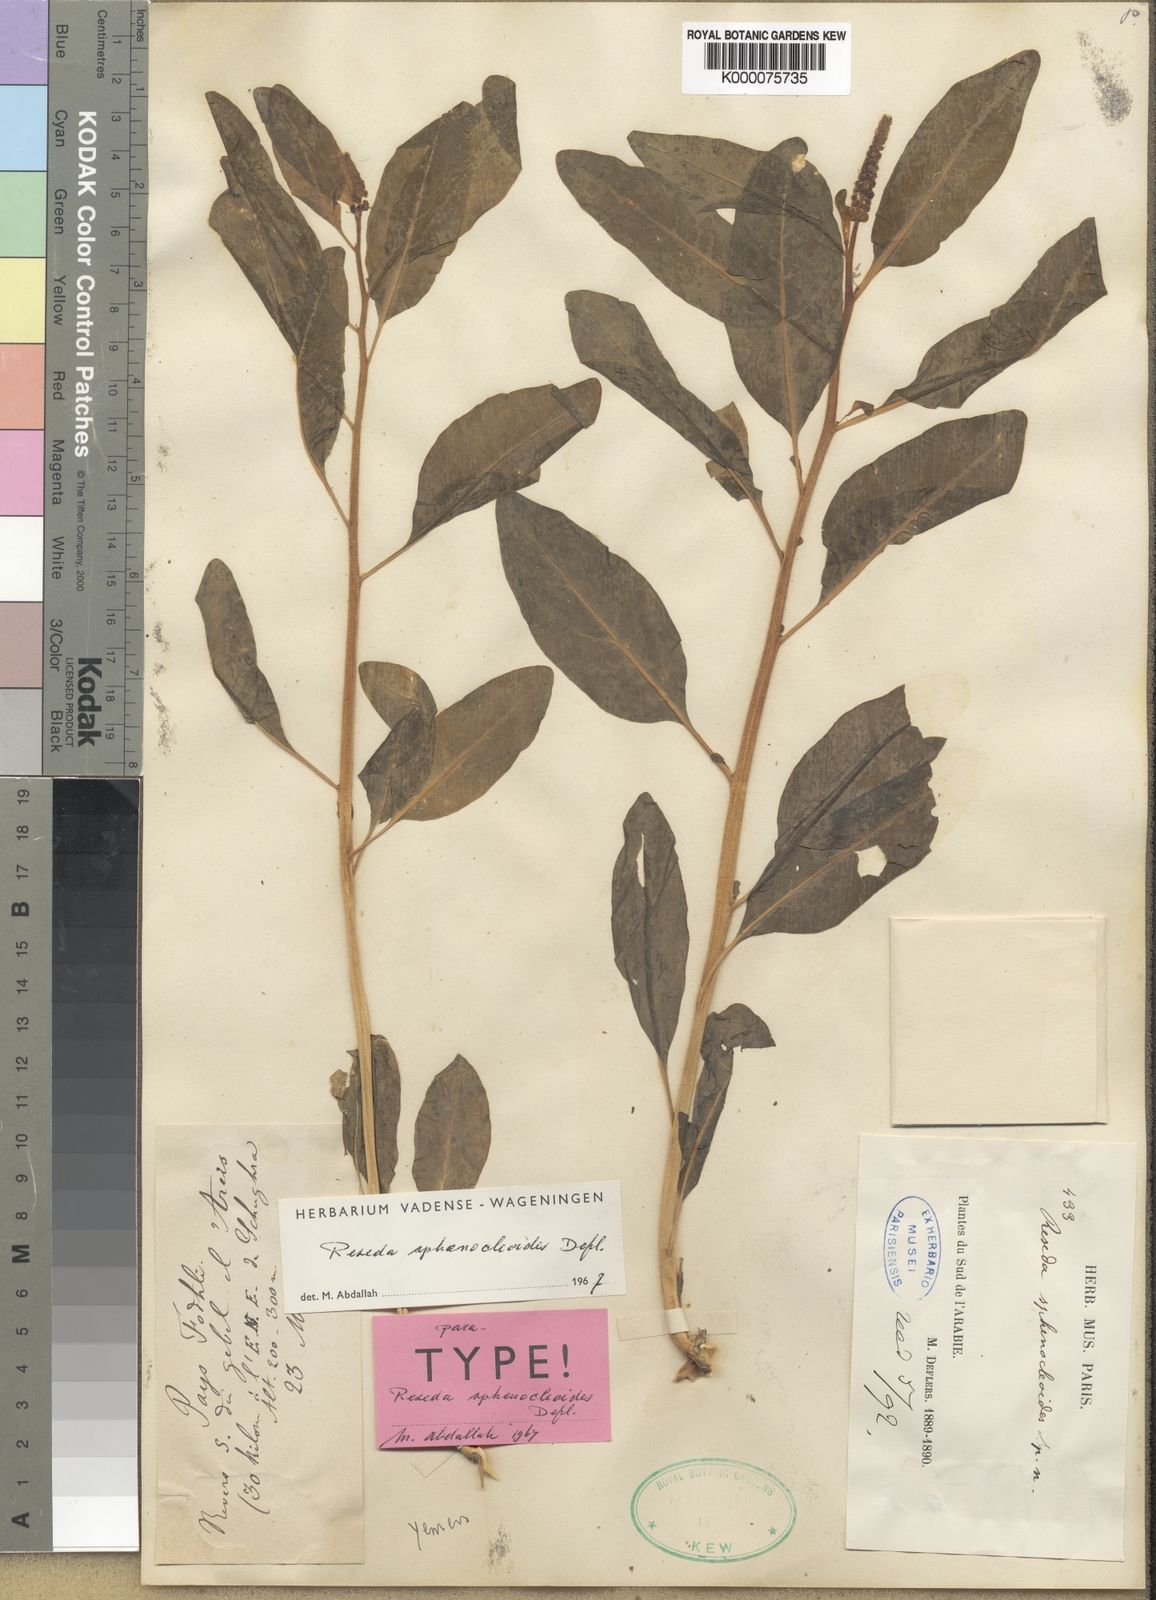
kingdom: Plantae
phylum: Tracheophyta
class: Magnoliopsida
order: Brassicales
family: Resedaceae
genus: Reseda
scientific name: Reseda sphenocleoides
